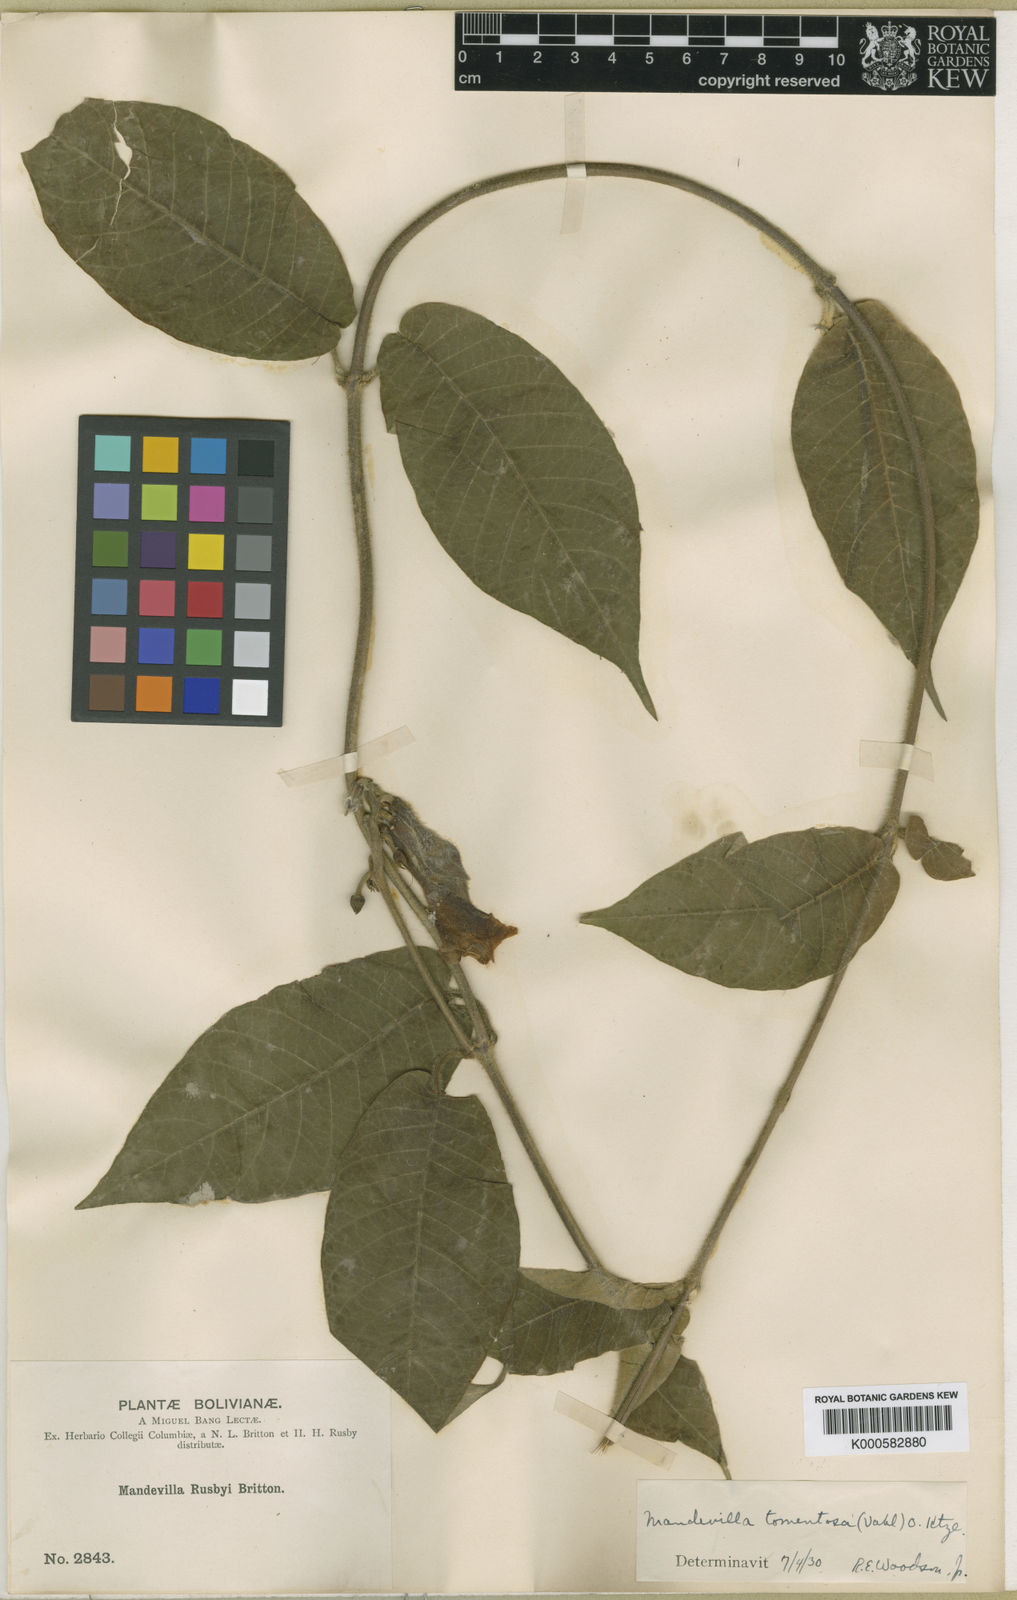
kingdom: Plantae
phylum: Tracheophyta
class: Magnoliopsida
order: Gentianales
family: Apocynaceae
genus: Mandevilla
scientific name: Mandevilla hirsuta
